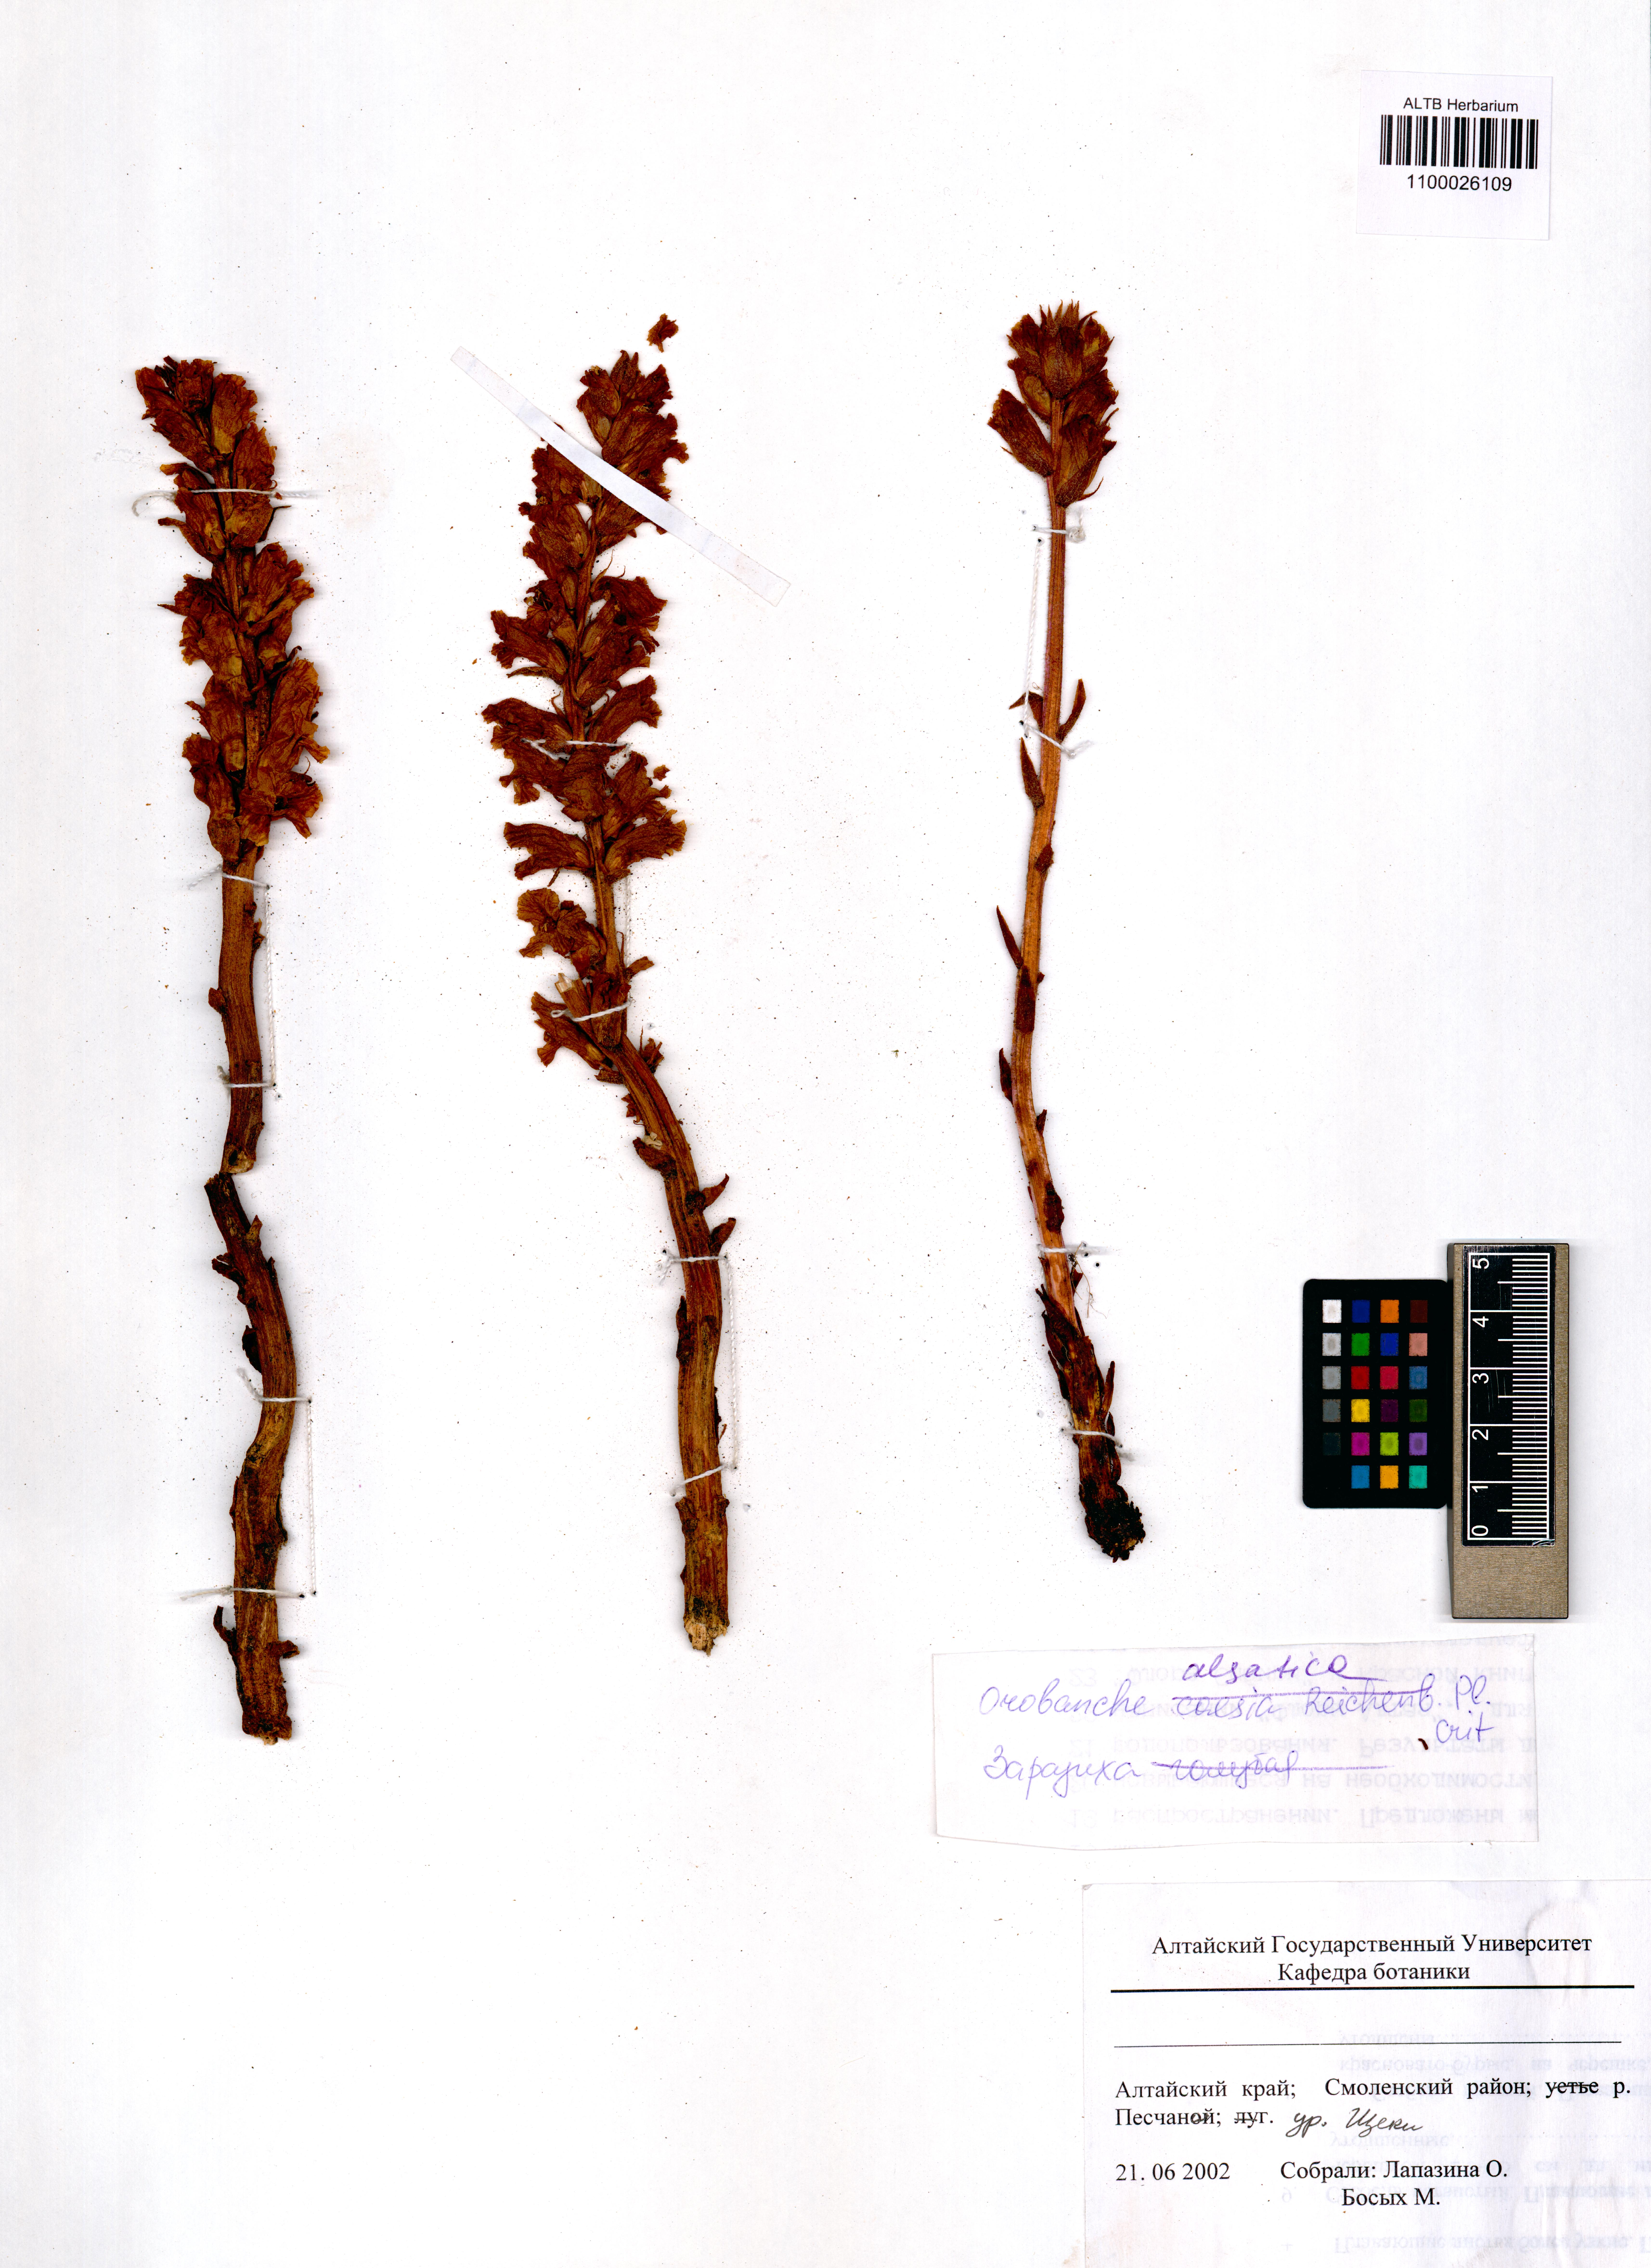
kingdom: Plantae
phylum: Tracheophyta
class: Magnoliopsida
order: Lamiales
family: Orobanchaceae
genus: Orobanche
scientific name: Orobanche alsatica
